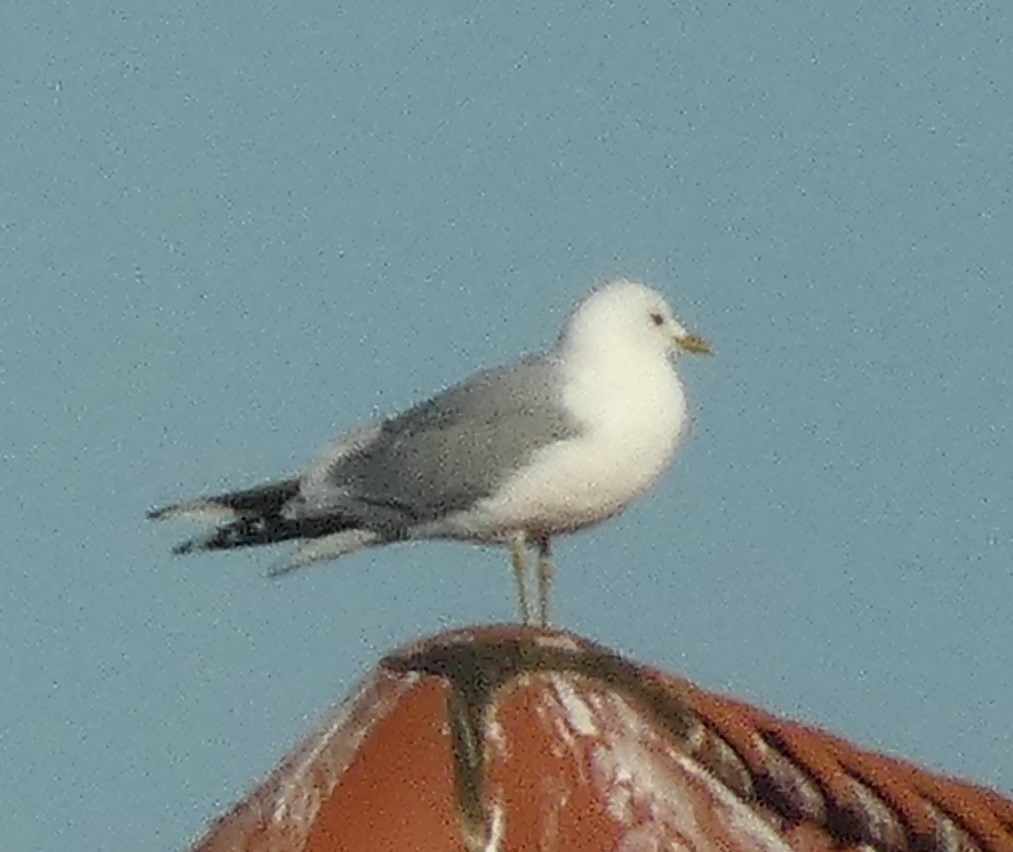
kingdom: Animalia
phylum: Chordata
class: Aves
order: Charadriiformes
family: Laridae
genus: Larus
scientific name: Larus canus
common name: Stormmåge
